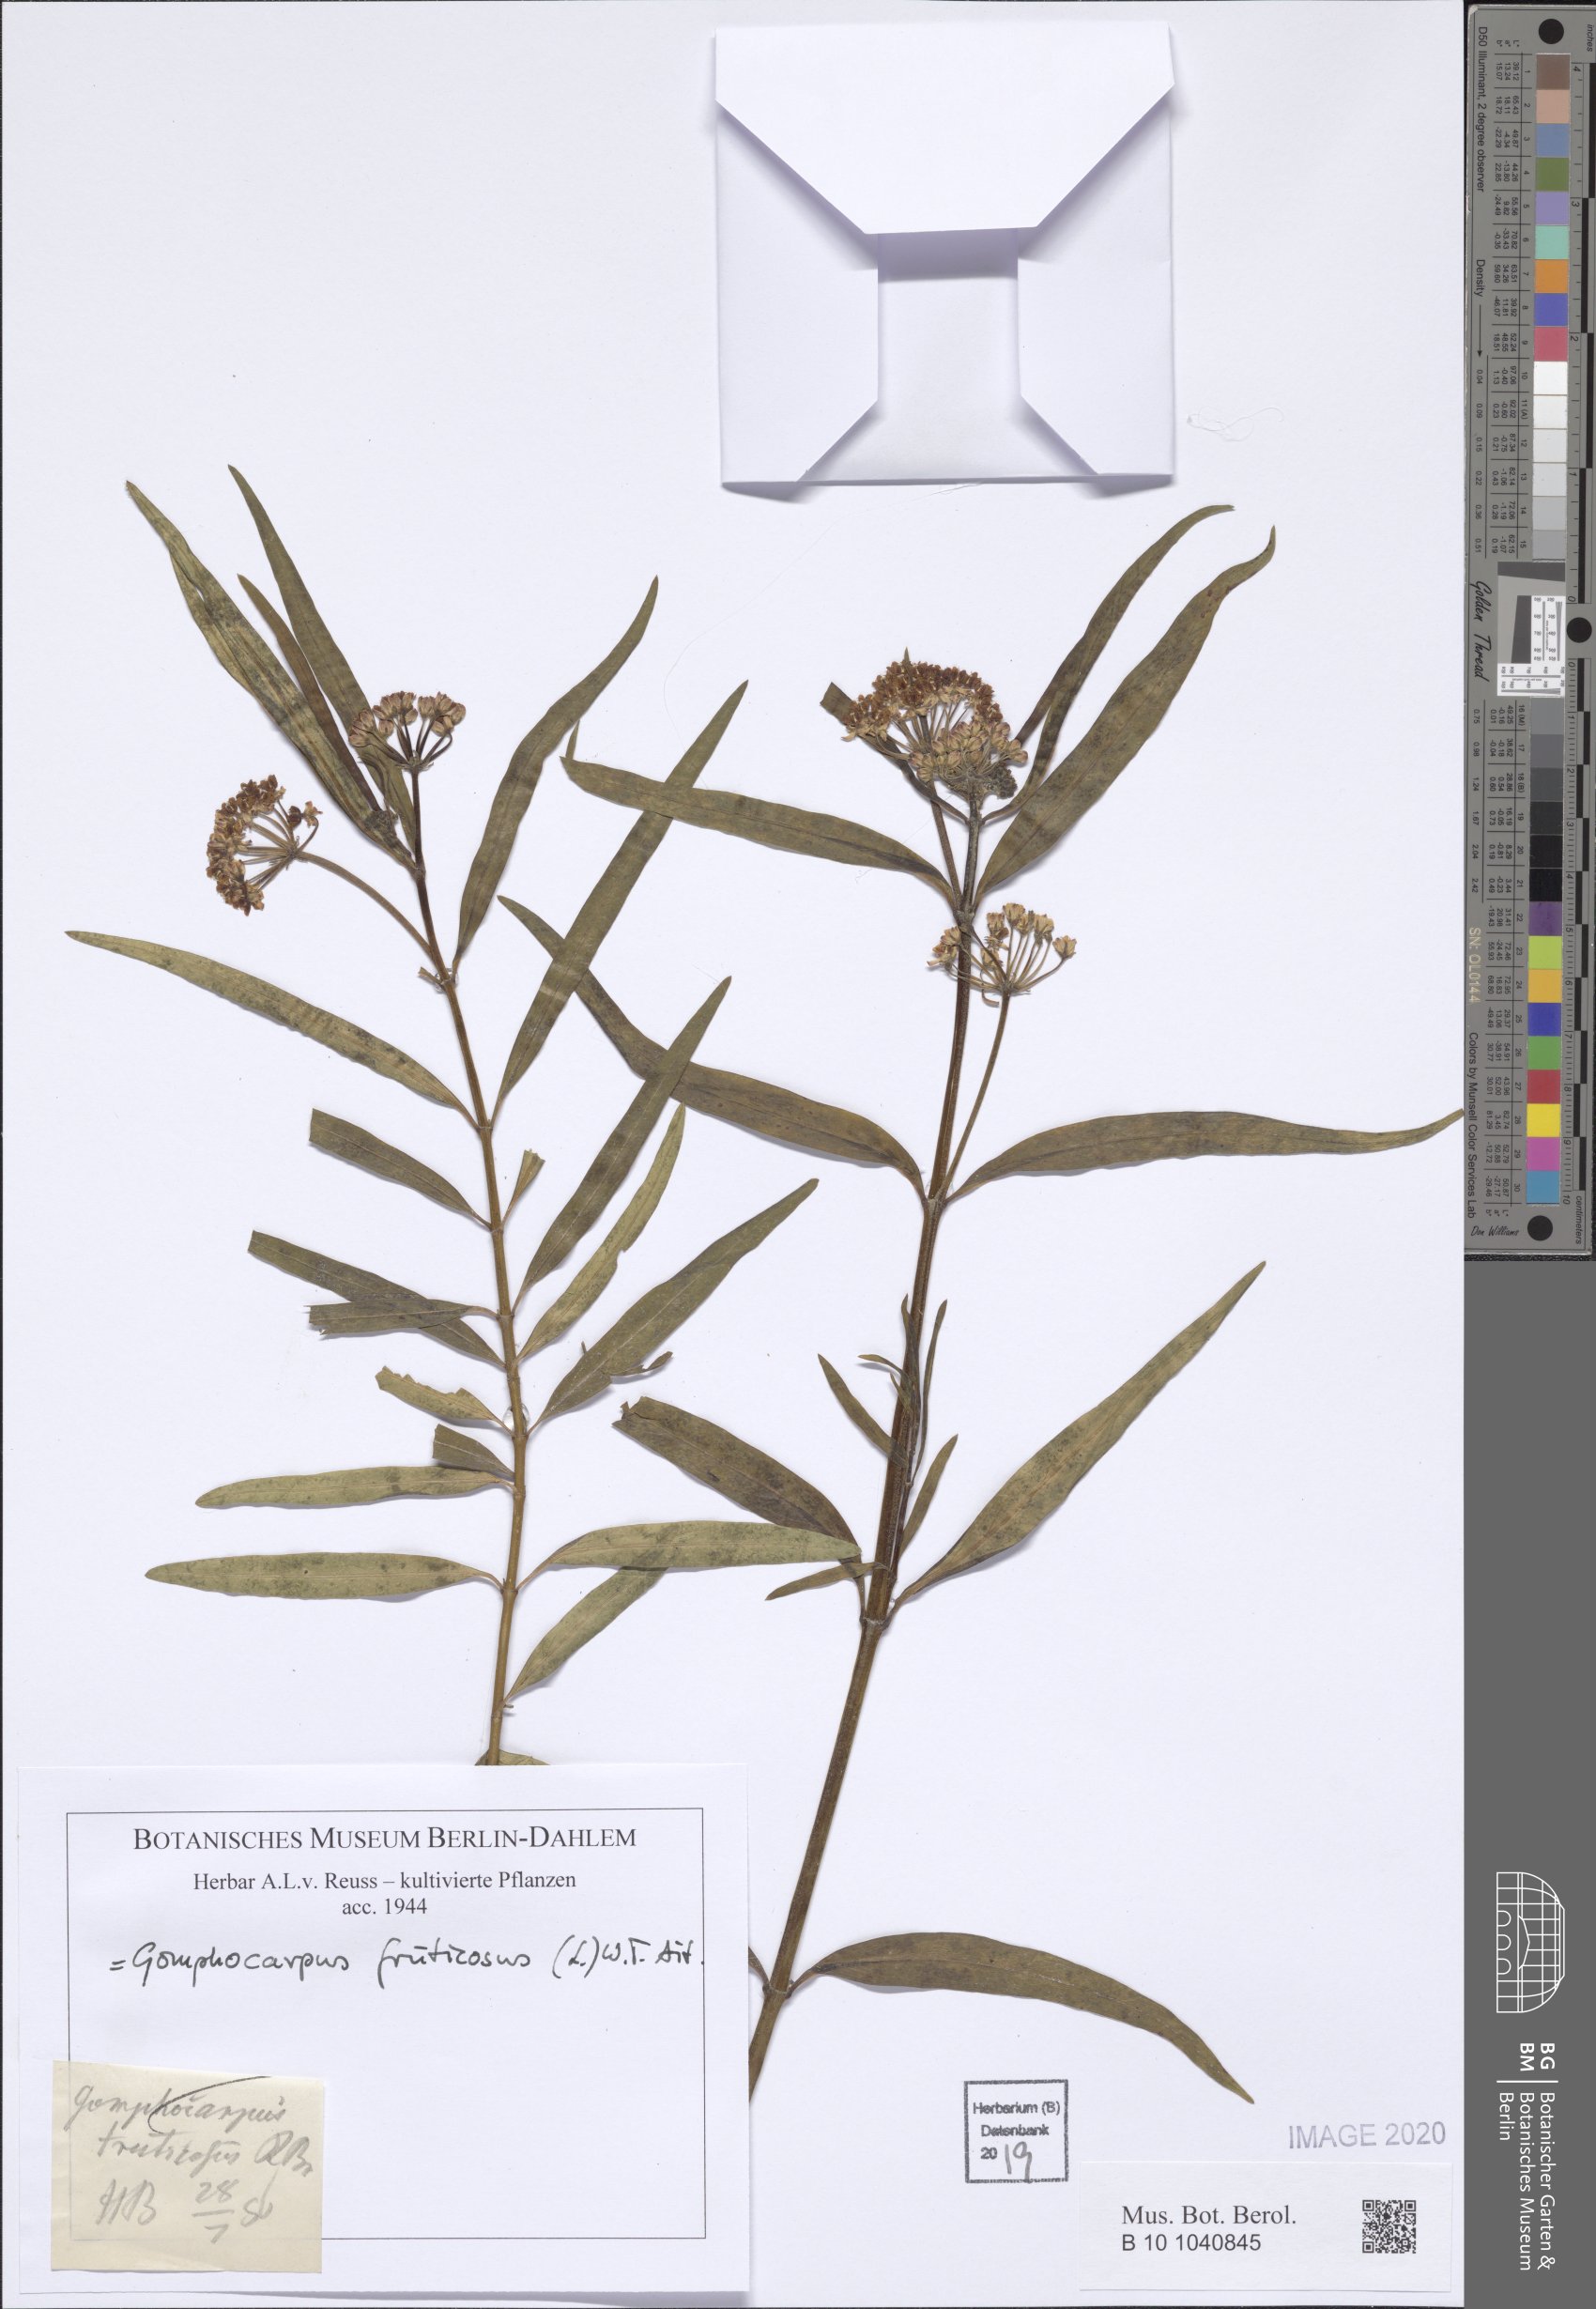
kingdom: Plantae
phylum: Tracheophyta
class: Magnoliopsida
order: Gentianales
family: Apocynaceae
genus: Gomphocarpus
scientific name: Gomphocarpus fruticosus
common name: Milkweed
